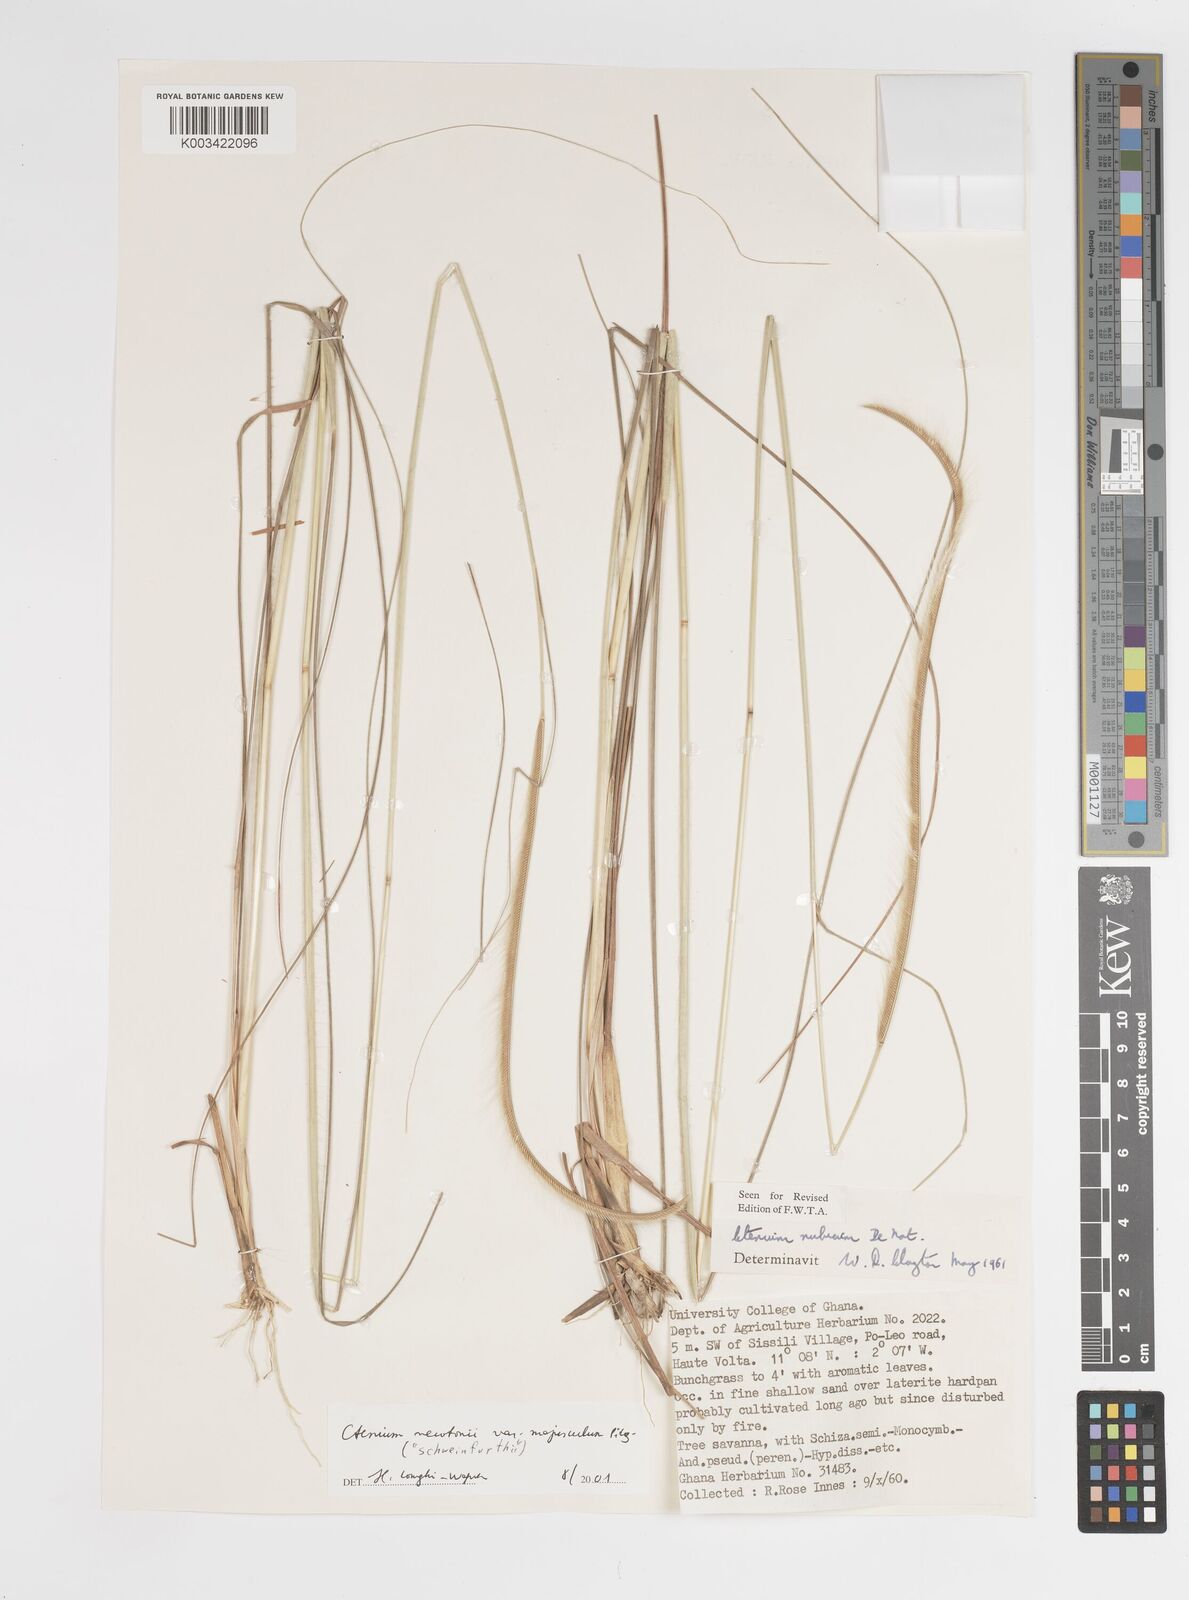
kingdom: Plantae
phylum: Tracheophyta
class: Liliopsida
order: Poales
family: Poaceae
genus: Ctenium
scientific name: Ctenium newtonii
